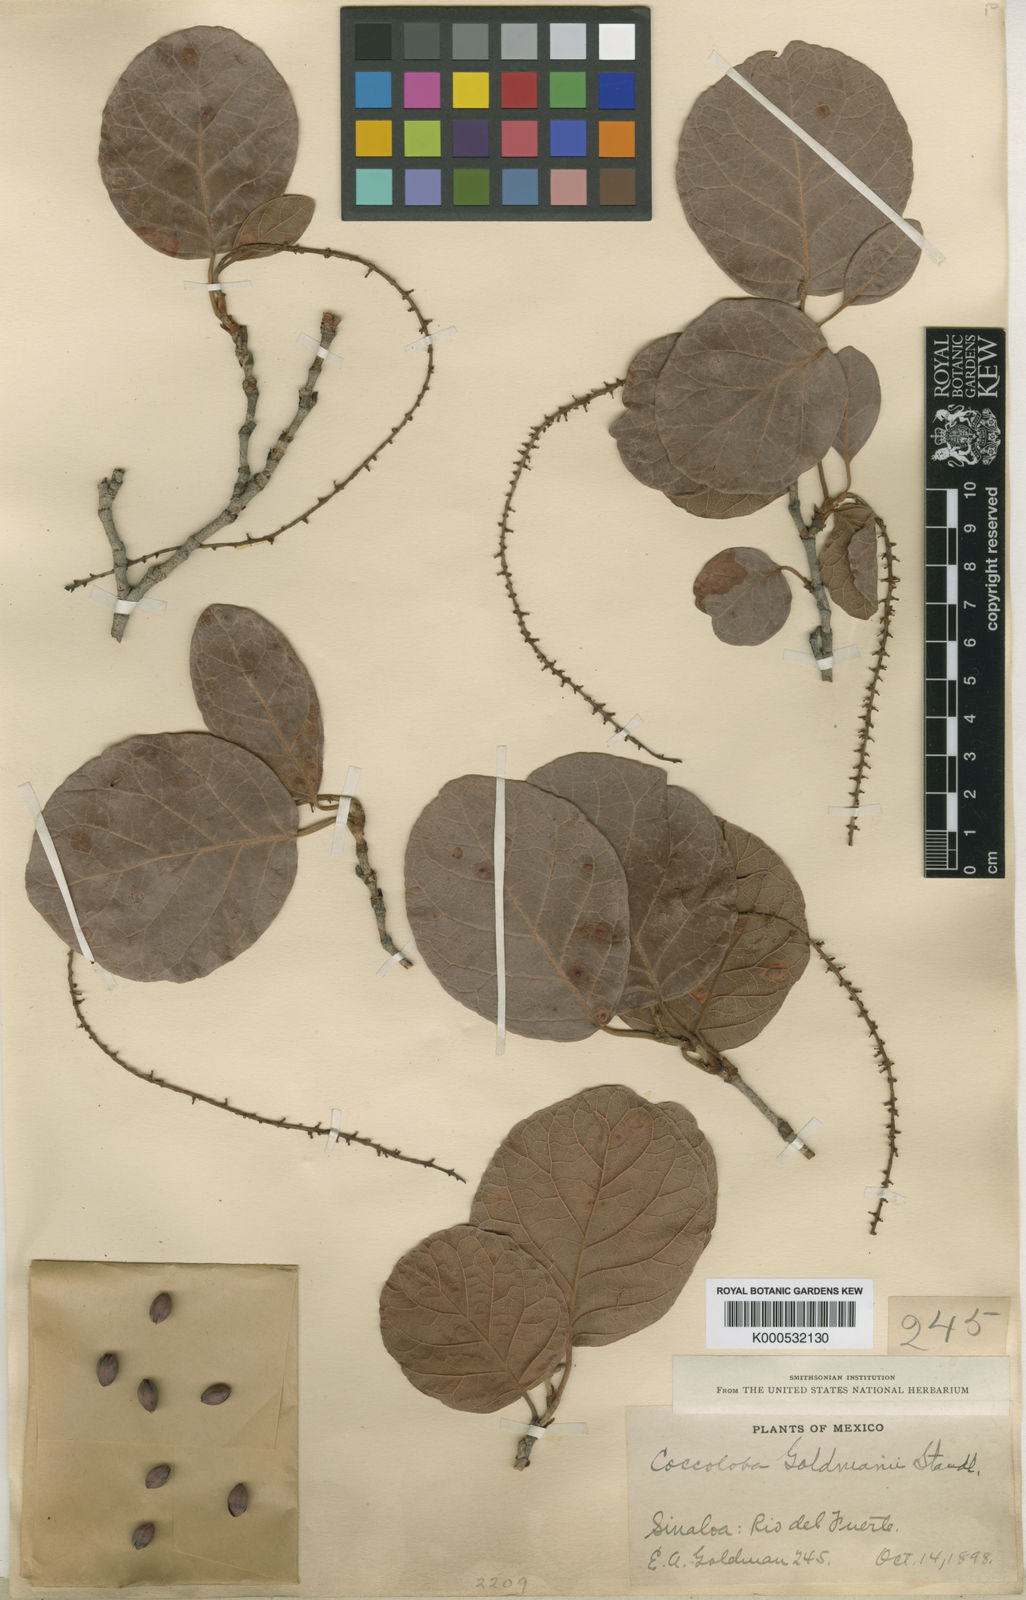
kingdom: Plantae
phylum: Tracheophyta
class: Magnoliopsida
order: Caryophyllales
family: Polygonaceae
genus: Coccoloba
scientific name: Coccoloba goldmanii
